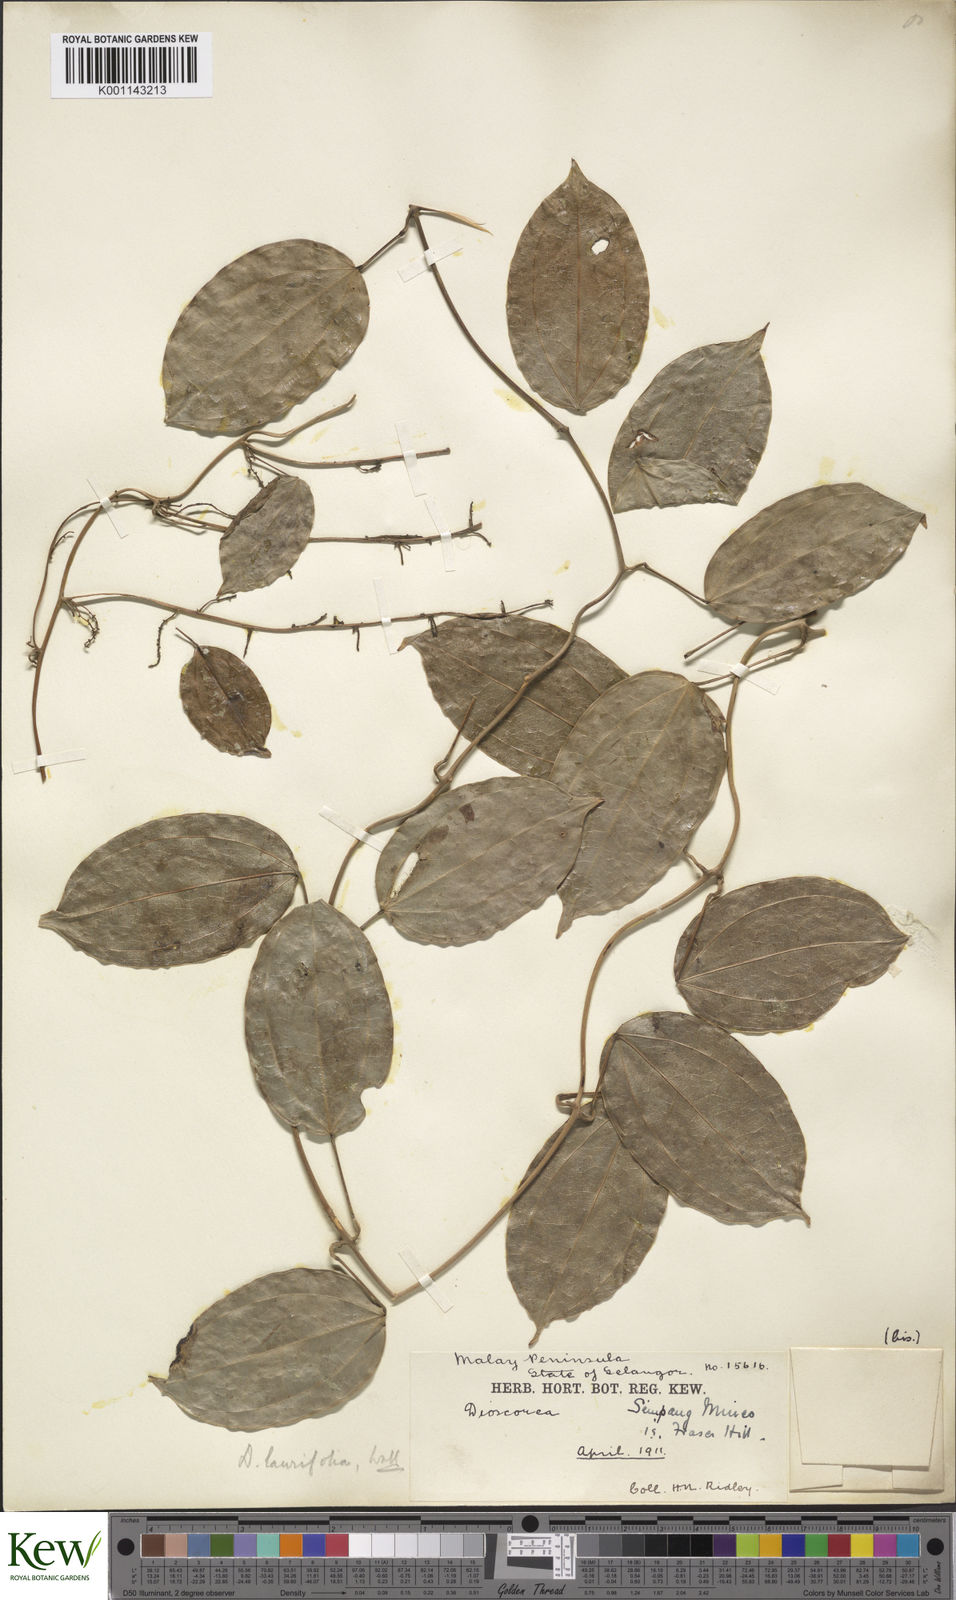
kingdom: Plantae
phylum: Tracheophyta
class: Liliopsida
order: Dioscoreales
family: Dioscoreaceae
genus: Dioscorea
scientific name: Dioscorea laurifolia
